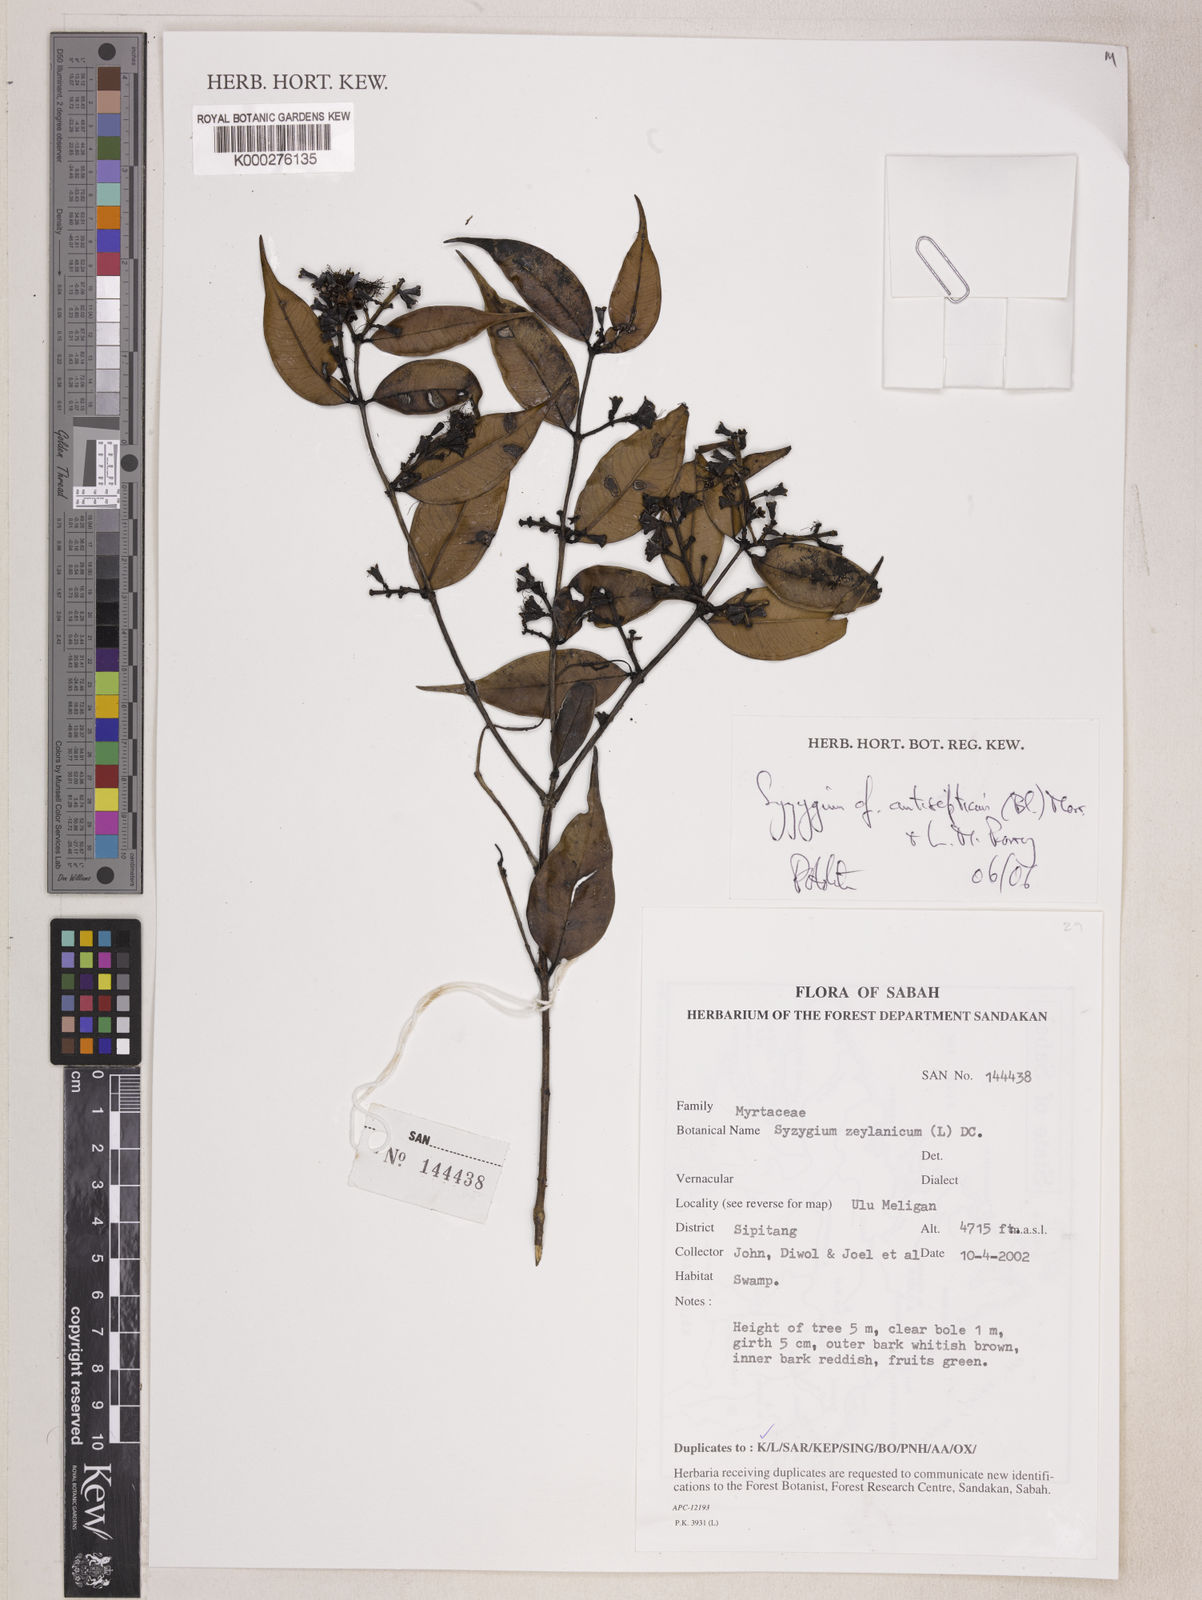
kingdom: Plantae
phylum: Tracheophyta
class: Magnoliopsida
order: Myrtales
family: Myrtaceae
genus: Syzygium
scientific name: Syzygium antisepticum
